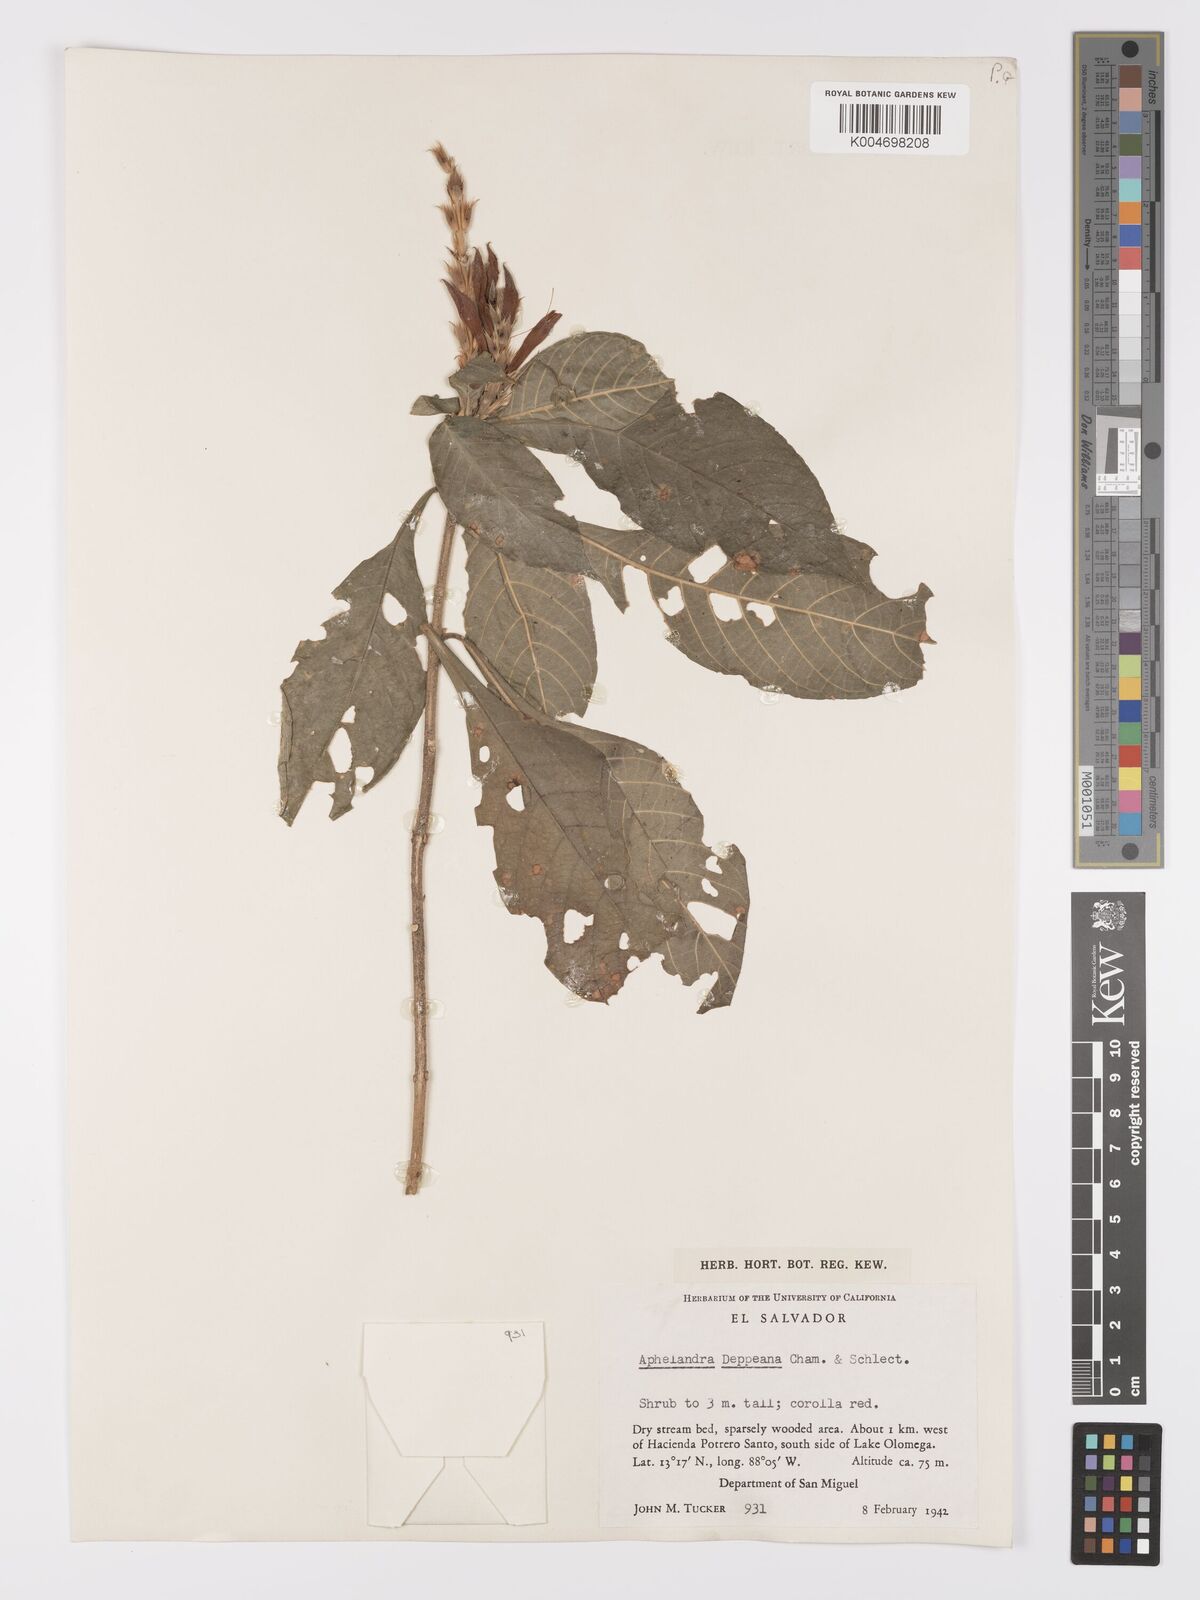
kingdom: Plantae
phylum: Tracheophyta
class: Magnoliopsida
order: Lamiales
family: Acanthaceae
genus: Aphelandra
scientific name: Aphelandra scabra
